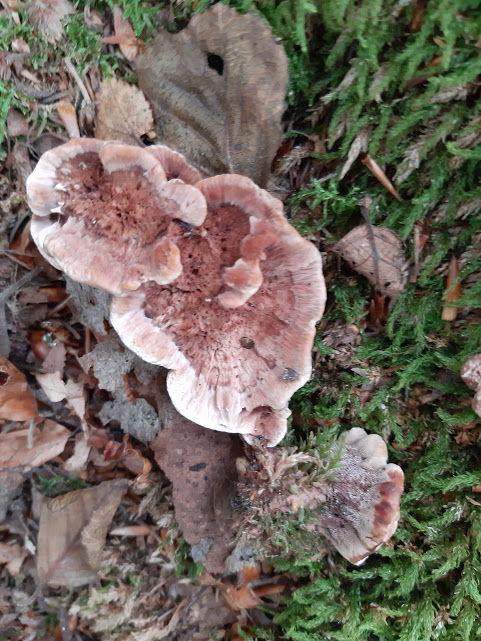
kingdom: Fungi
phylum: Basidiomycota
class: Agaricomycetes
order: Thelephorales
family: Bankeraceae
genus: Hydnellum
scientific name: Hydnellum concrescens
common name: bæltet korkpigsvamp
